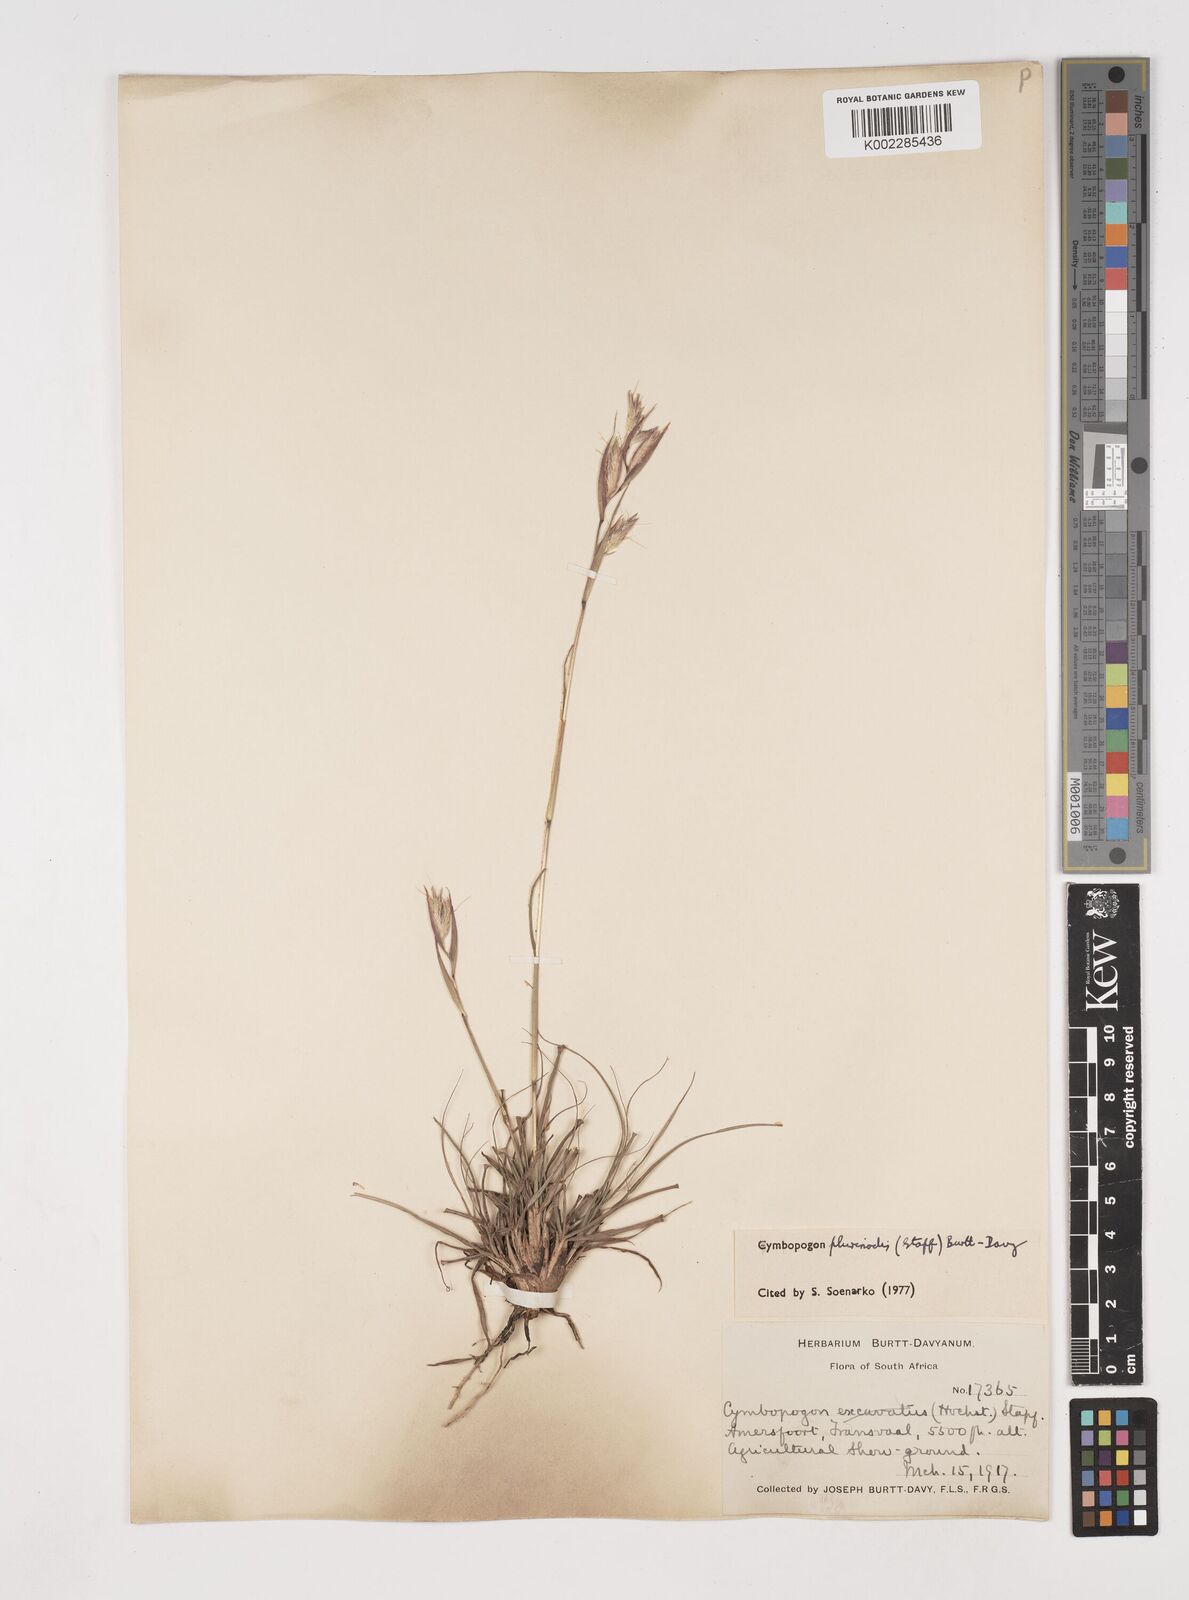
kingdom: Plantae
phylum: Tracheophyta
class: Liliopsida
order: Poales
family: Poaceae
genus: Cymbopogon
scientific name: Cymbopogon
